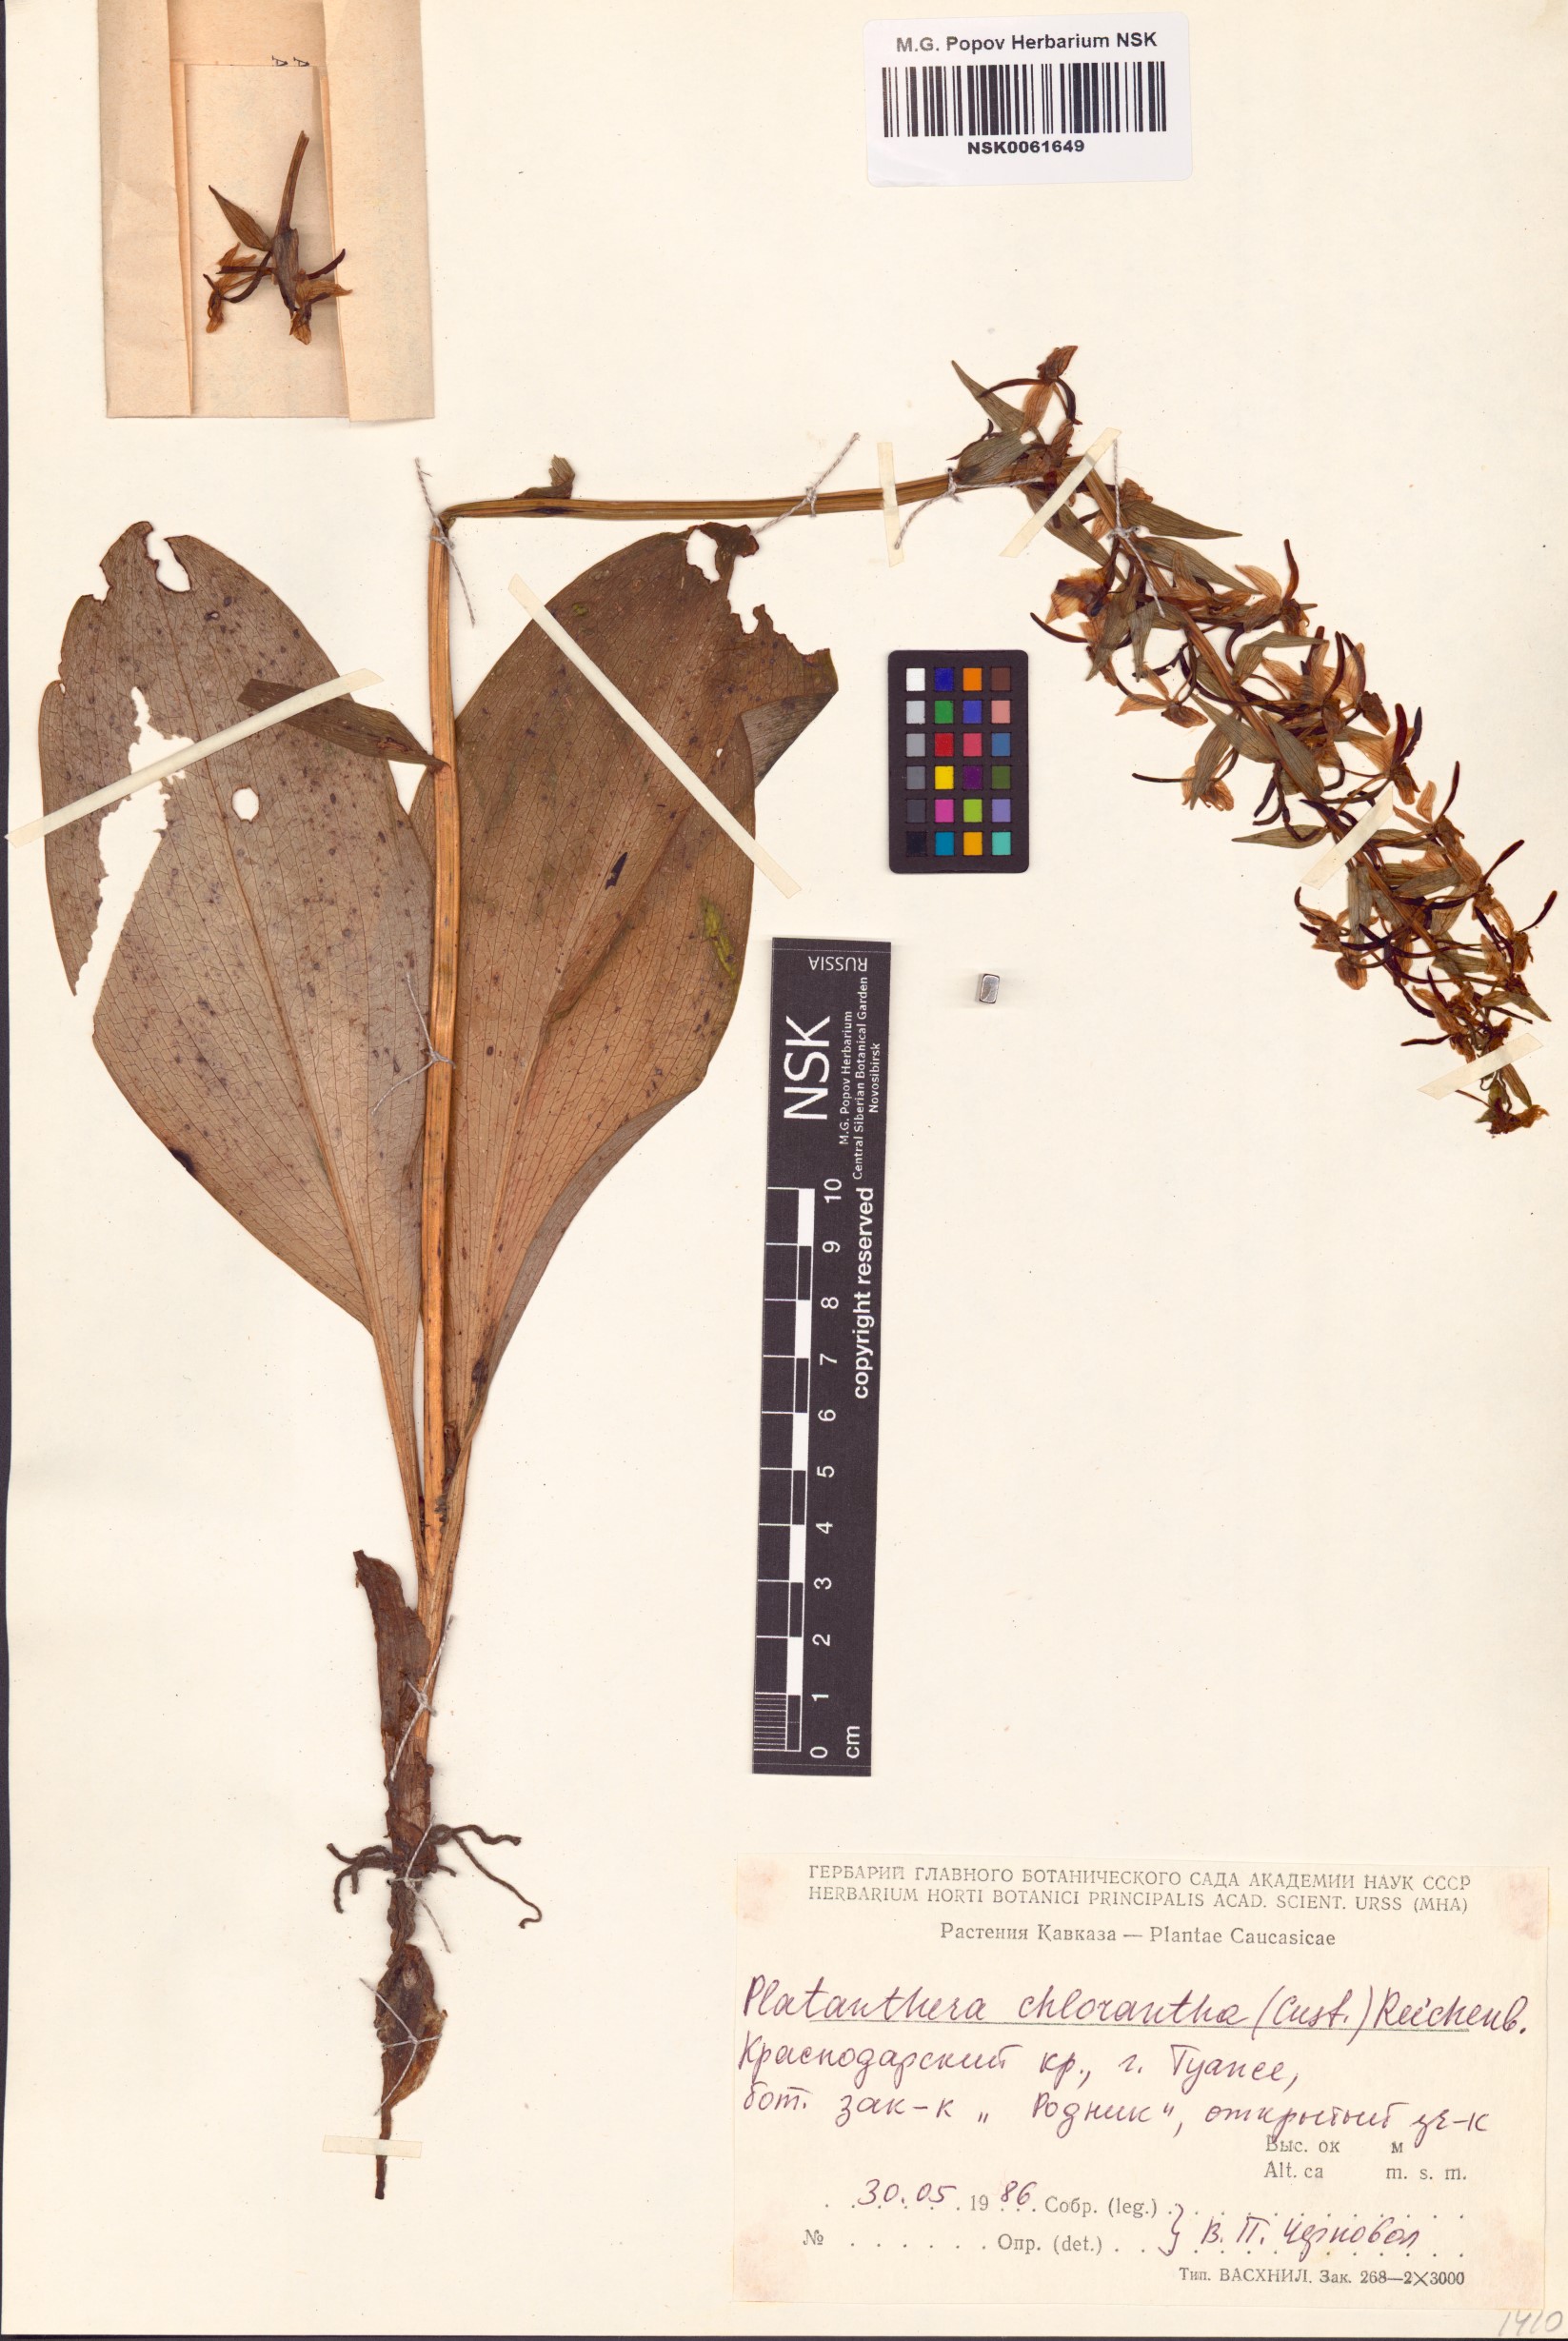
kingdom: Plantae
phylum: Tracheophyta
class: Liliopsida
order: Asparagales
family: Orchidaceae
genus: Platanthera
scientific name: Platanthera chlorantha
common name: Greater butterfly-orchid
